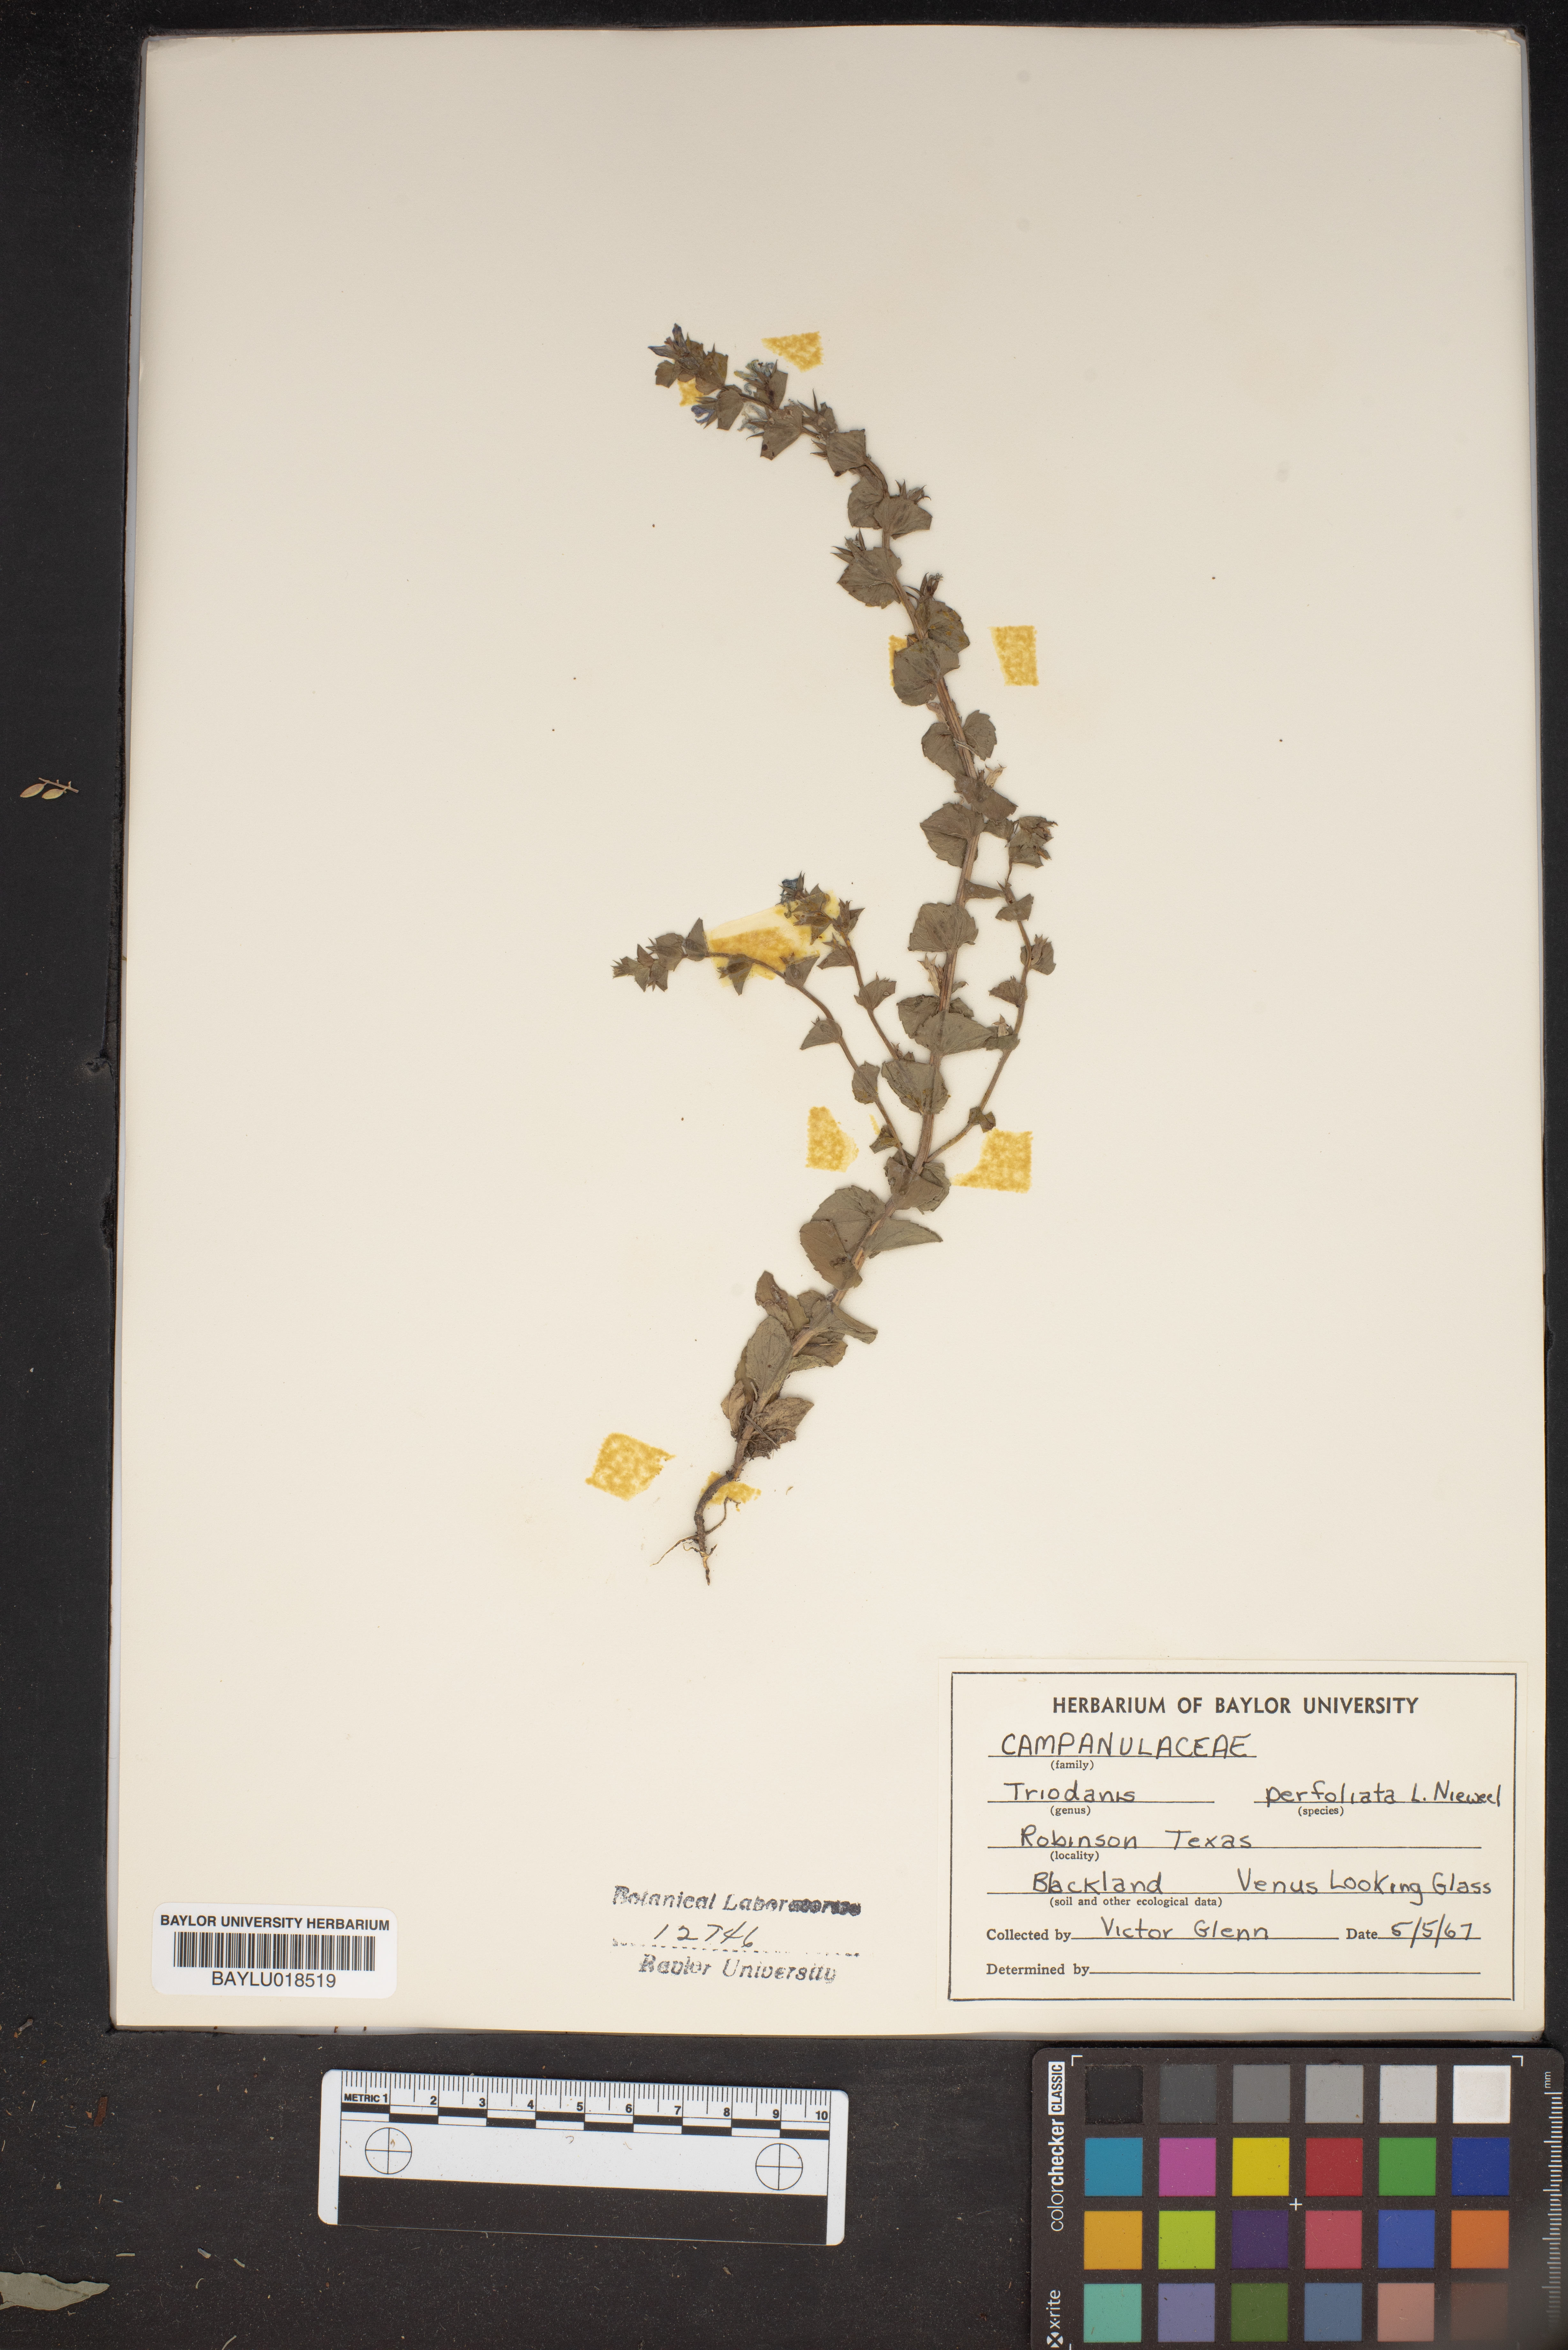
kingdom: Plantae
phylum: Tracheophyta
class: Magnoliopsida
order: Asterales
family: Campanulaceae
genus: Triodanis
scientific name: Triodanis perfoliata
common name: Clasping venus' looking-glass
